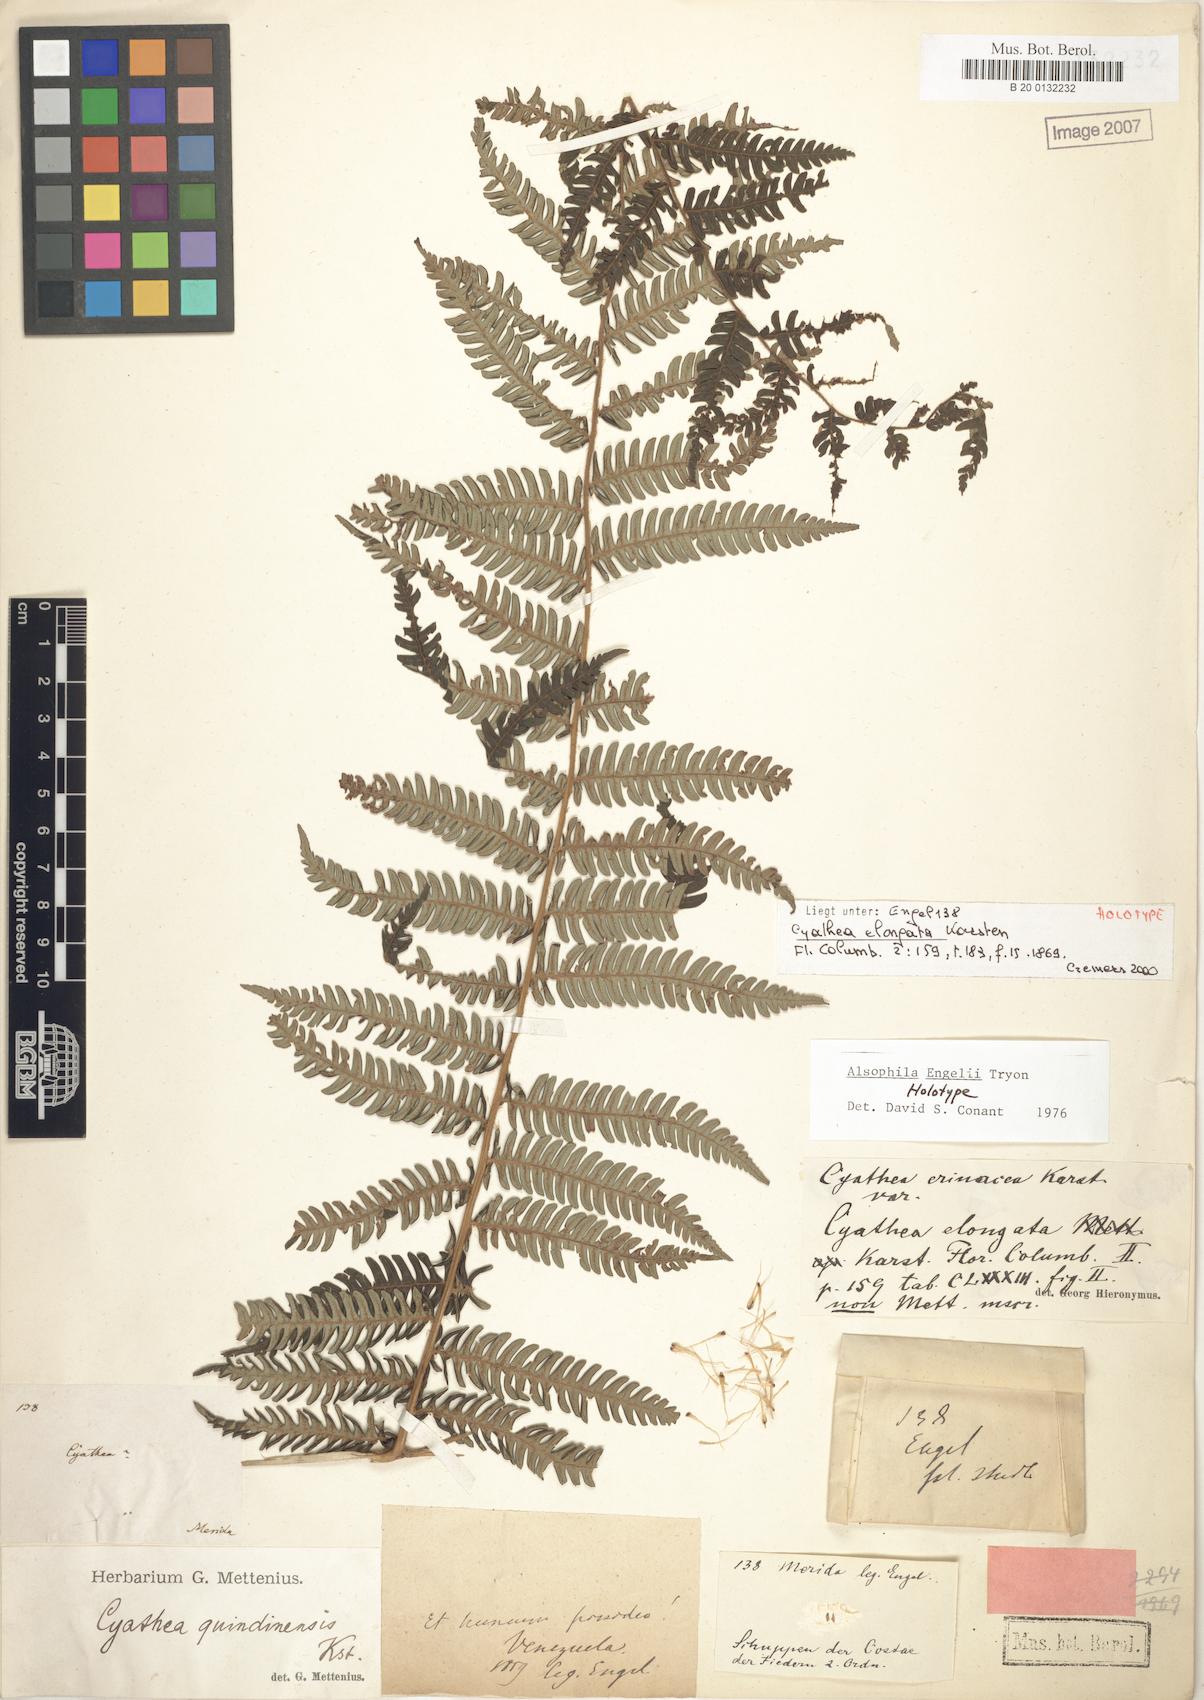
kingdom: Plantae
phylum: Tracheophyta
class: Polypodiopsida
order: Cyatheales
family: Cyatheaceae
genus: Alsophila
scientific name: Alsophila engelii
